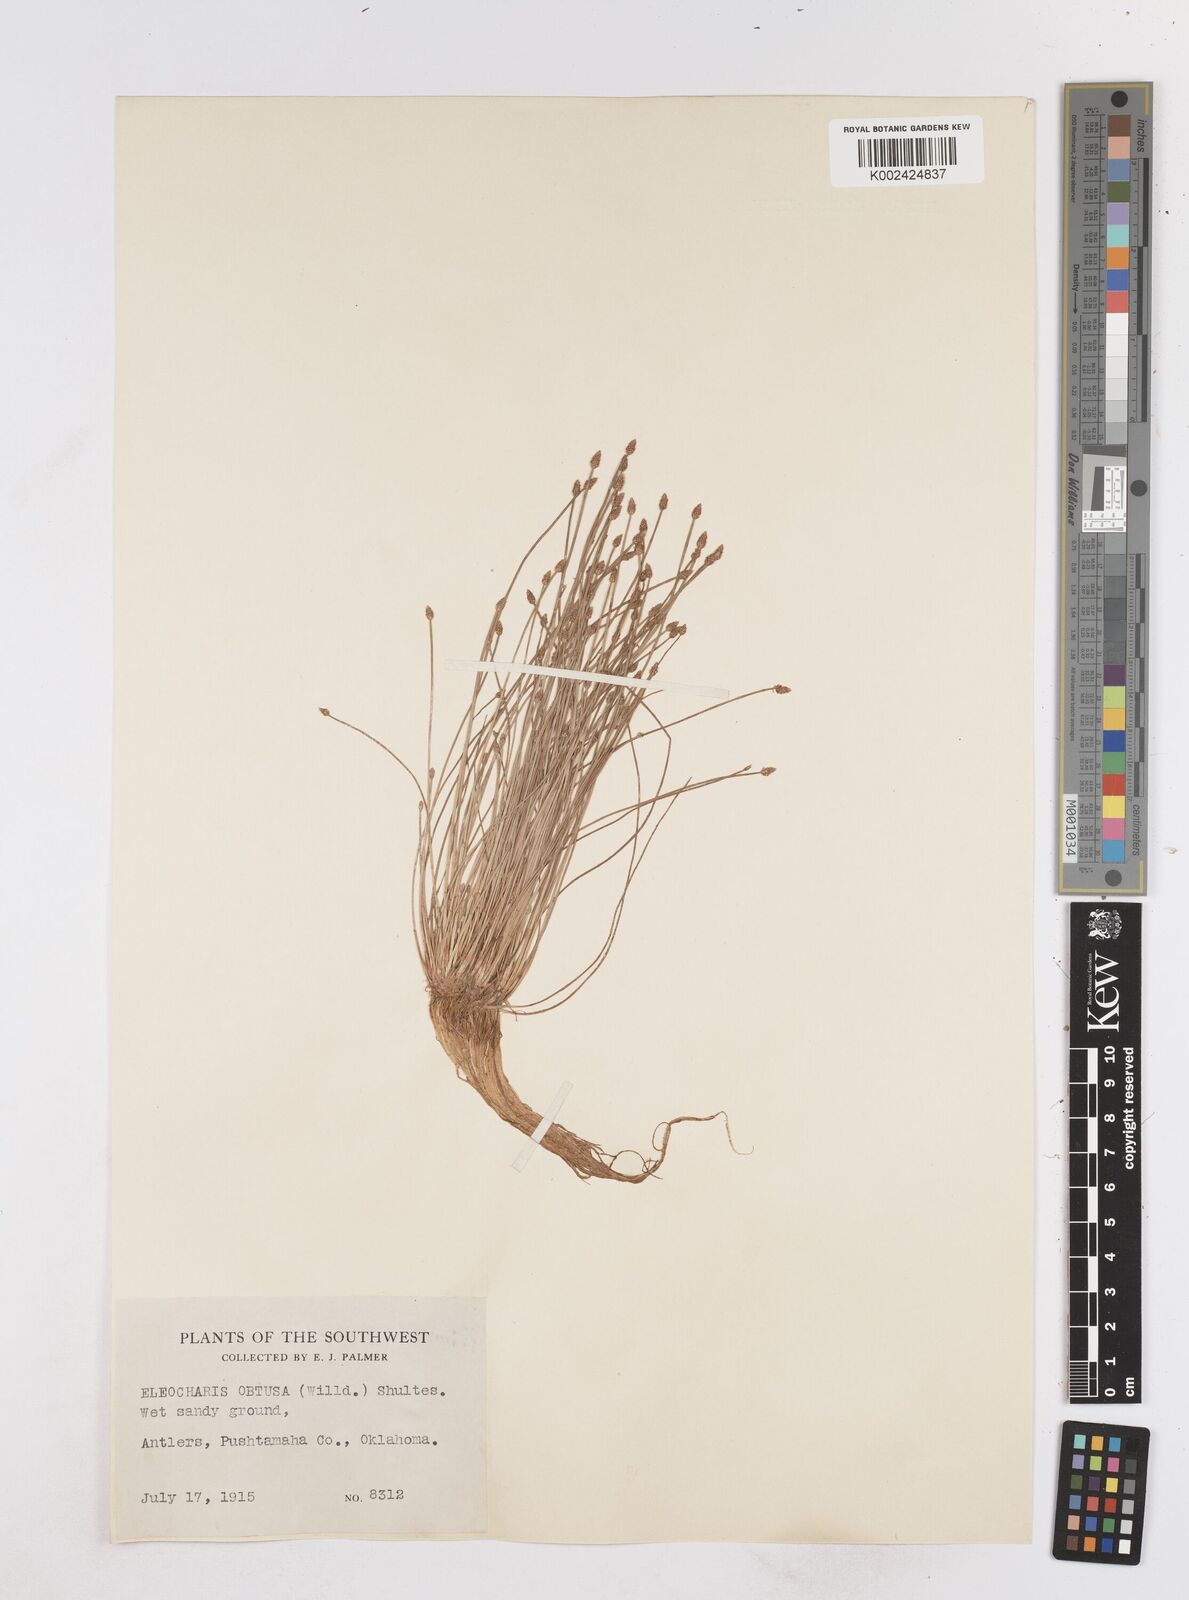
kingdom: Plantae
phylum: Tracheophyta
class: Liliopsida
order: Poales
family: Cyperaceae
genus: Eleocharis
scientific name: Eleocharis obtusa
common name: Blunt spikerush
